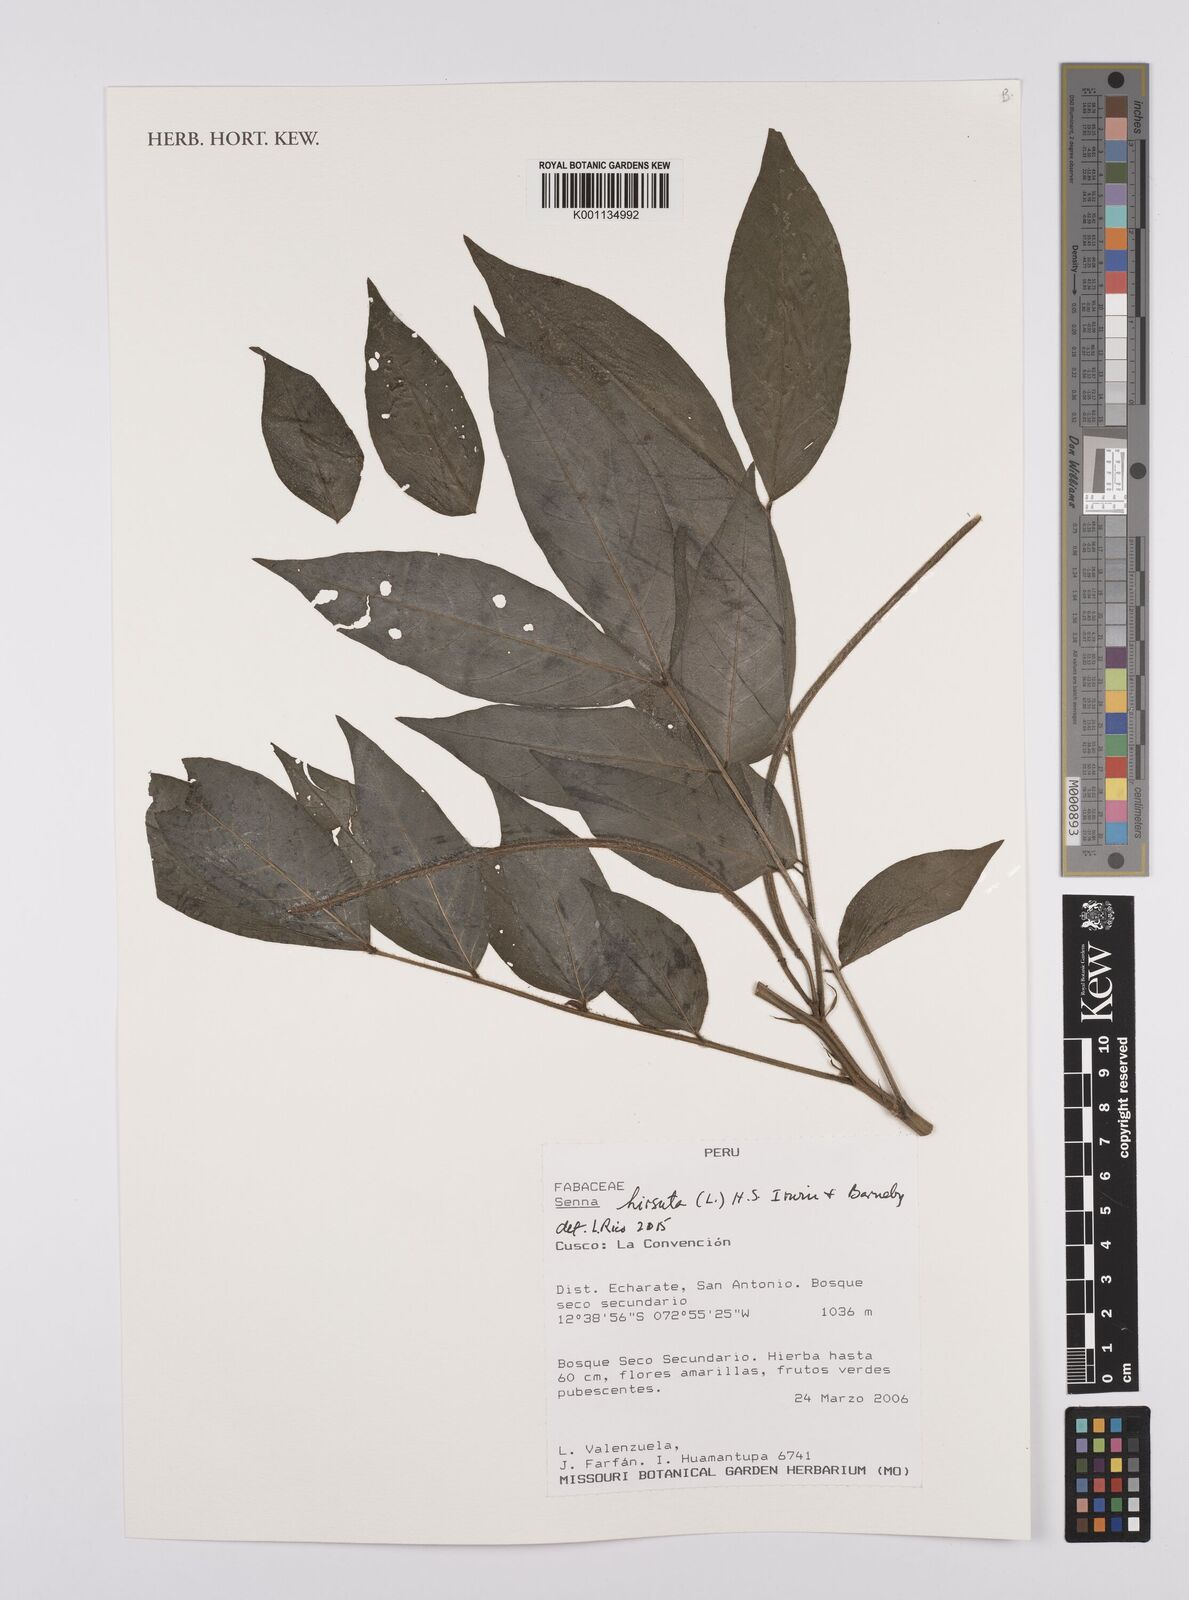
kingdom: Plantae
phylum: Tracheophyta
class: Magnoliopsida
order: Fabales
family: Fabaceae
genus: Senna
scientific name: Senna hirsuta
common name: Woolly senna
